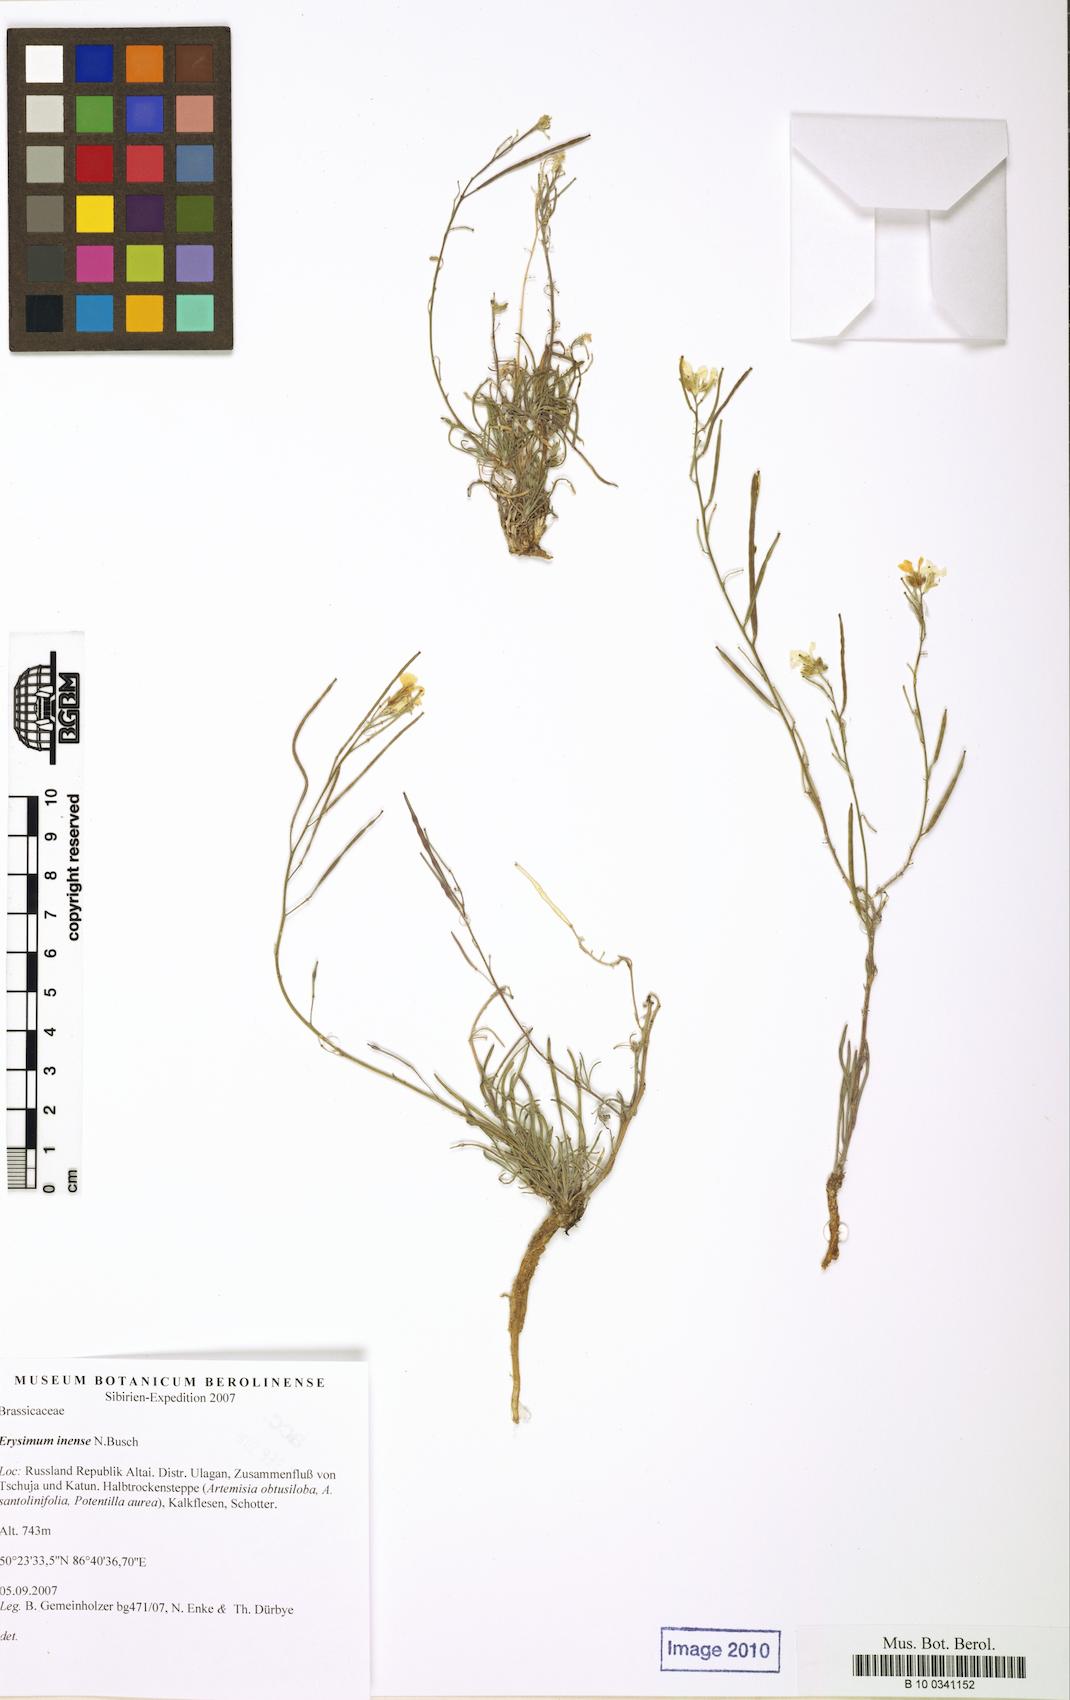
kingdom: Plantae
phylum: Tracheophyta
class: Magnoliopsida
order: Brassicales
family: Brassicaceae
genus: Erysimum
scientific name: Erysimum inense
